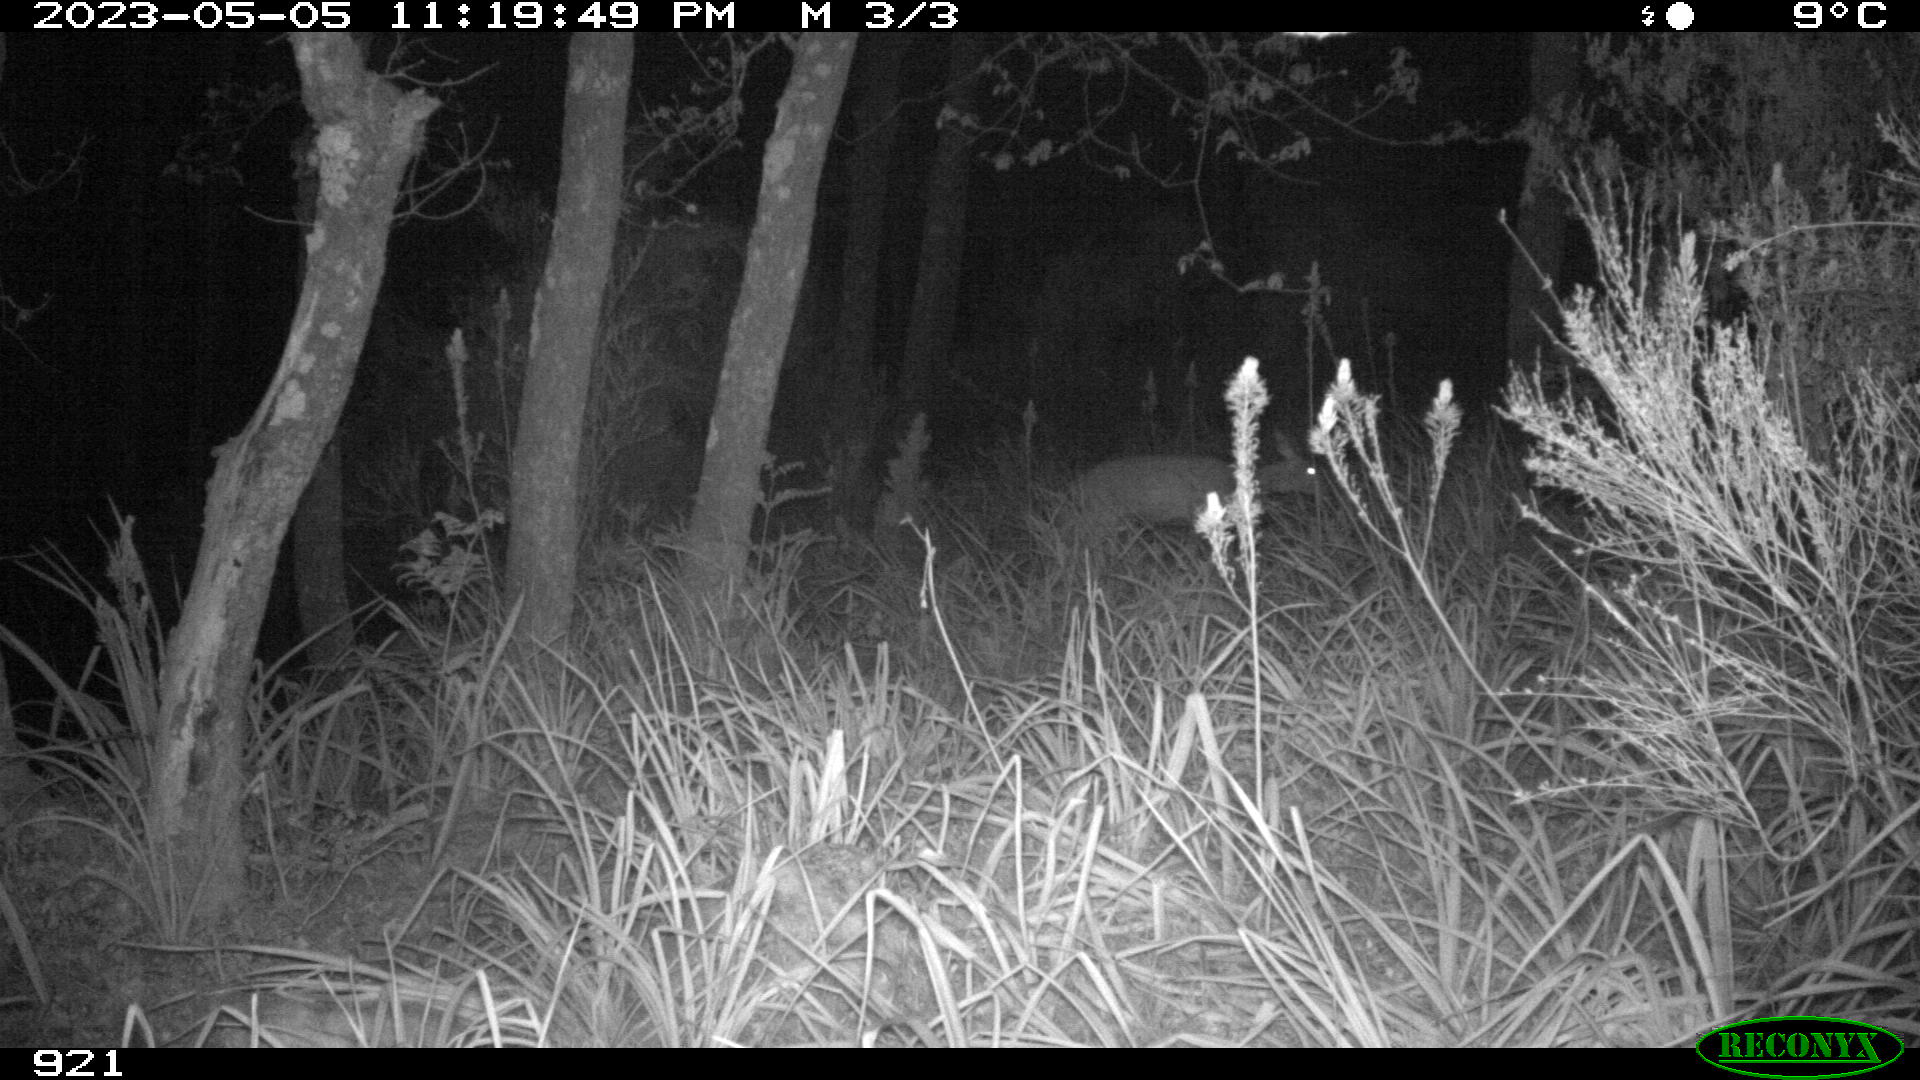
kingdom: Animalia
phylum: Chordata
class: Mammalia
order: Artiodactyla
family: Cervidae
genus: Capreolus
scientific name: Capreolus capreolus
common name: Western roe deer
